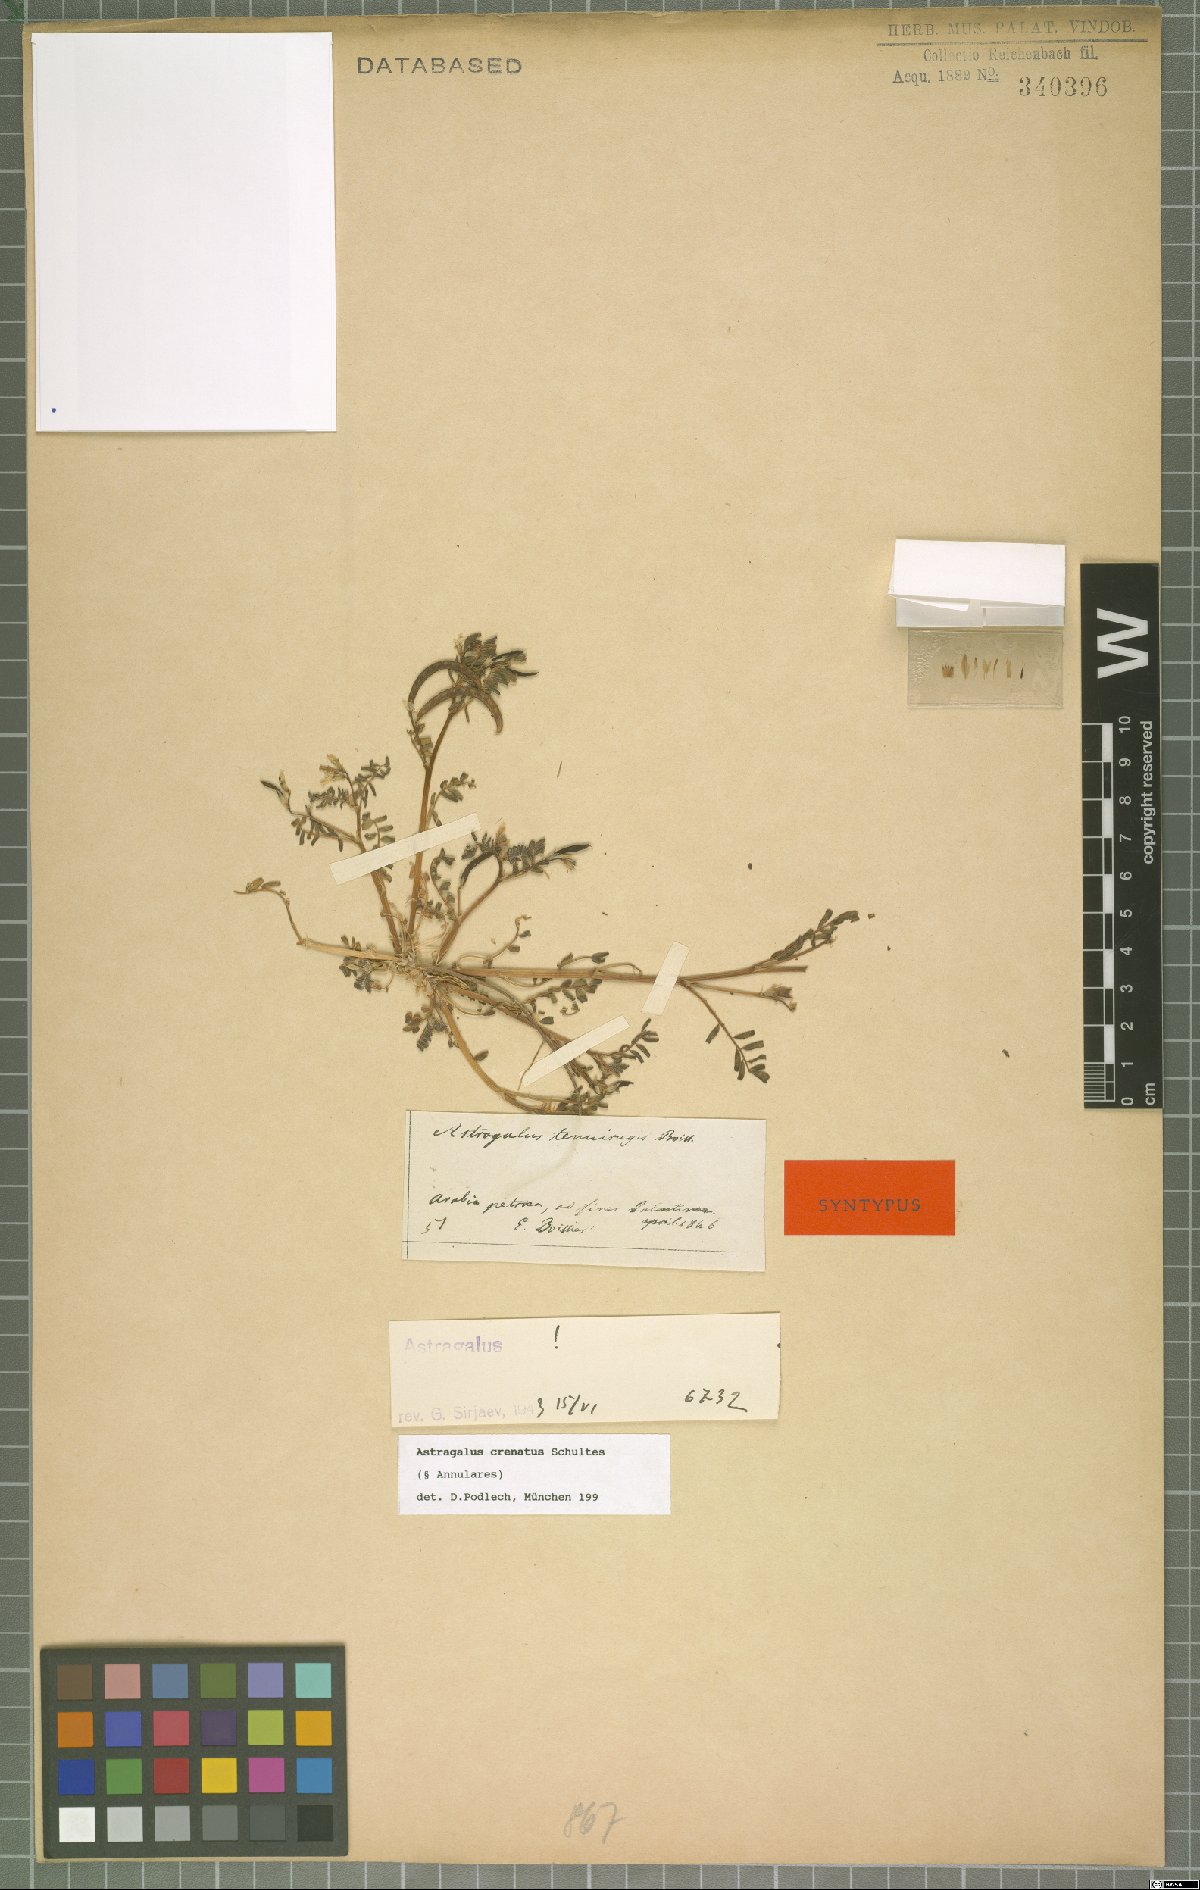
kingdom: Plantae
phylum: Tracheophyta
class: Magnoliopsida
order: Fabales
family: Fabaceae
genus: Astragalus
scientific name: Astragalus crenatus
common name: Milk vetch
